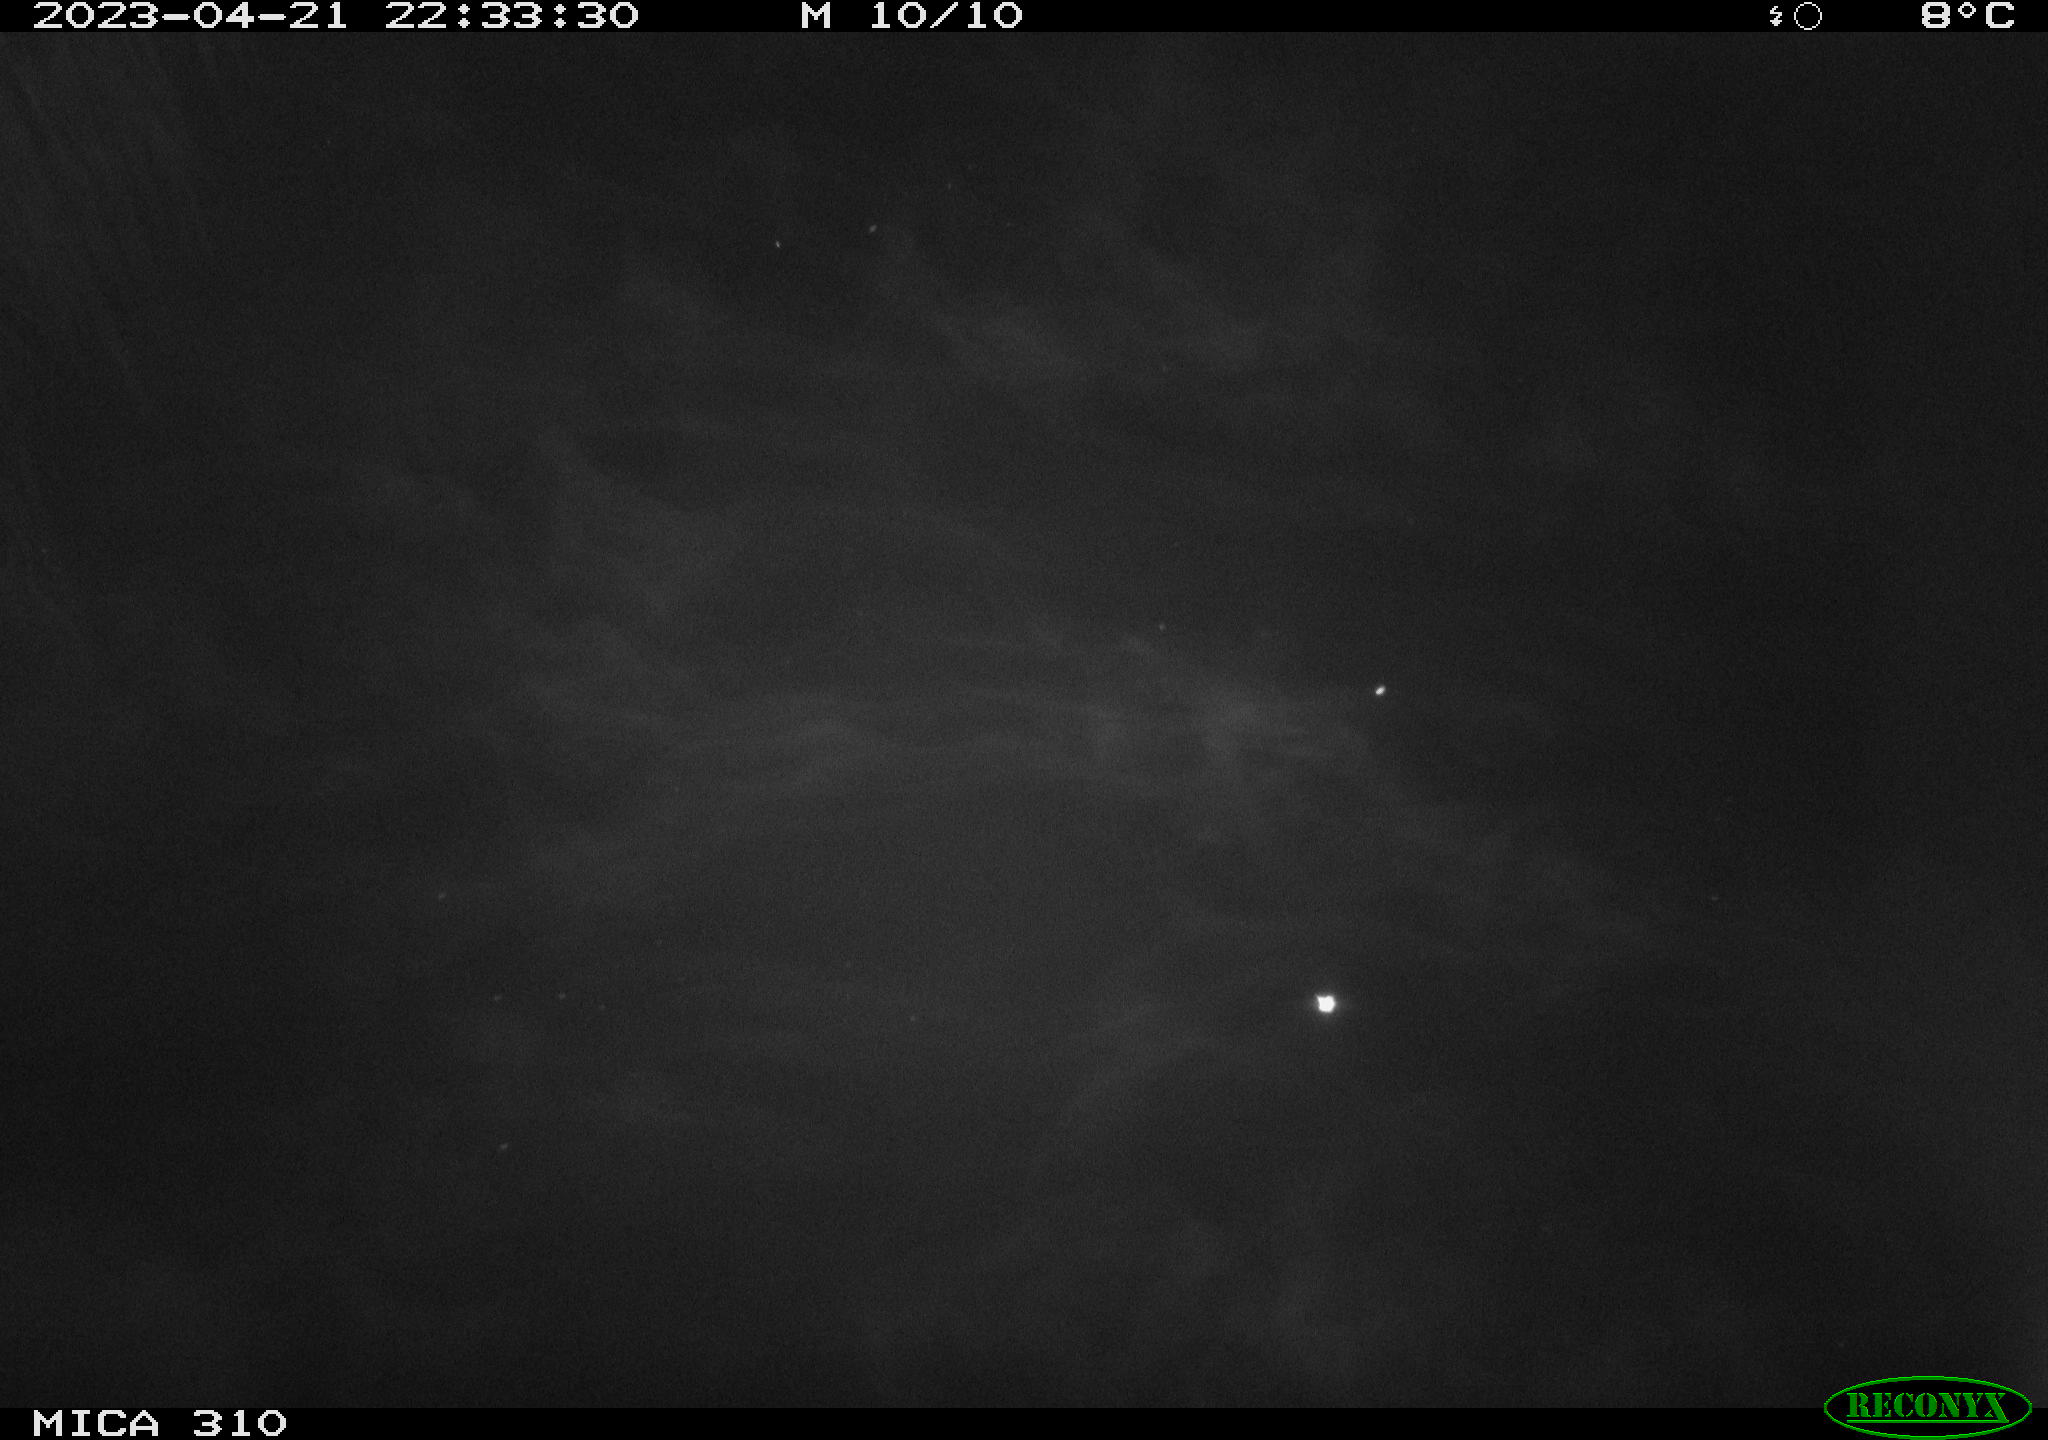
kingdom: Animalia
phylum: Chordata
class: Aves
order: Anseriformes
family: Anatidae
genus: Anas
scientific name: Anas
